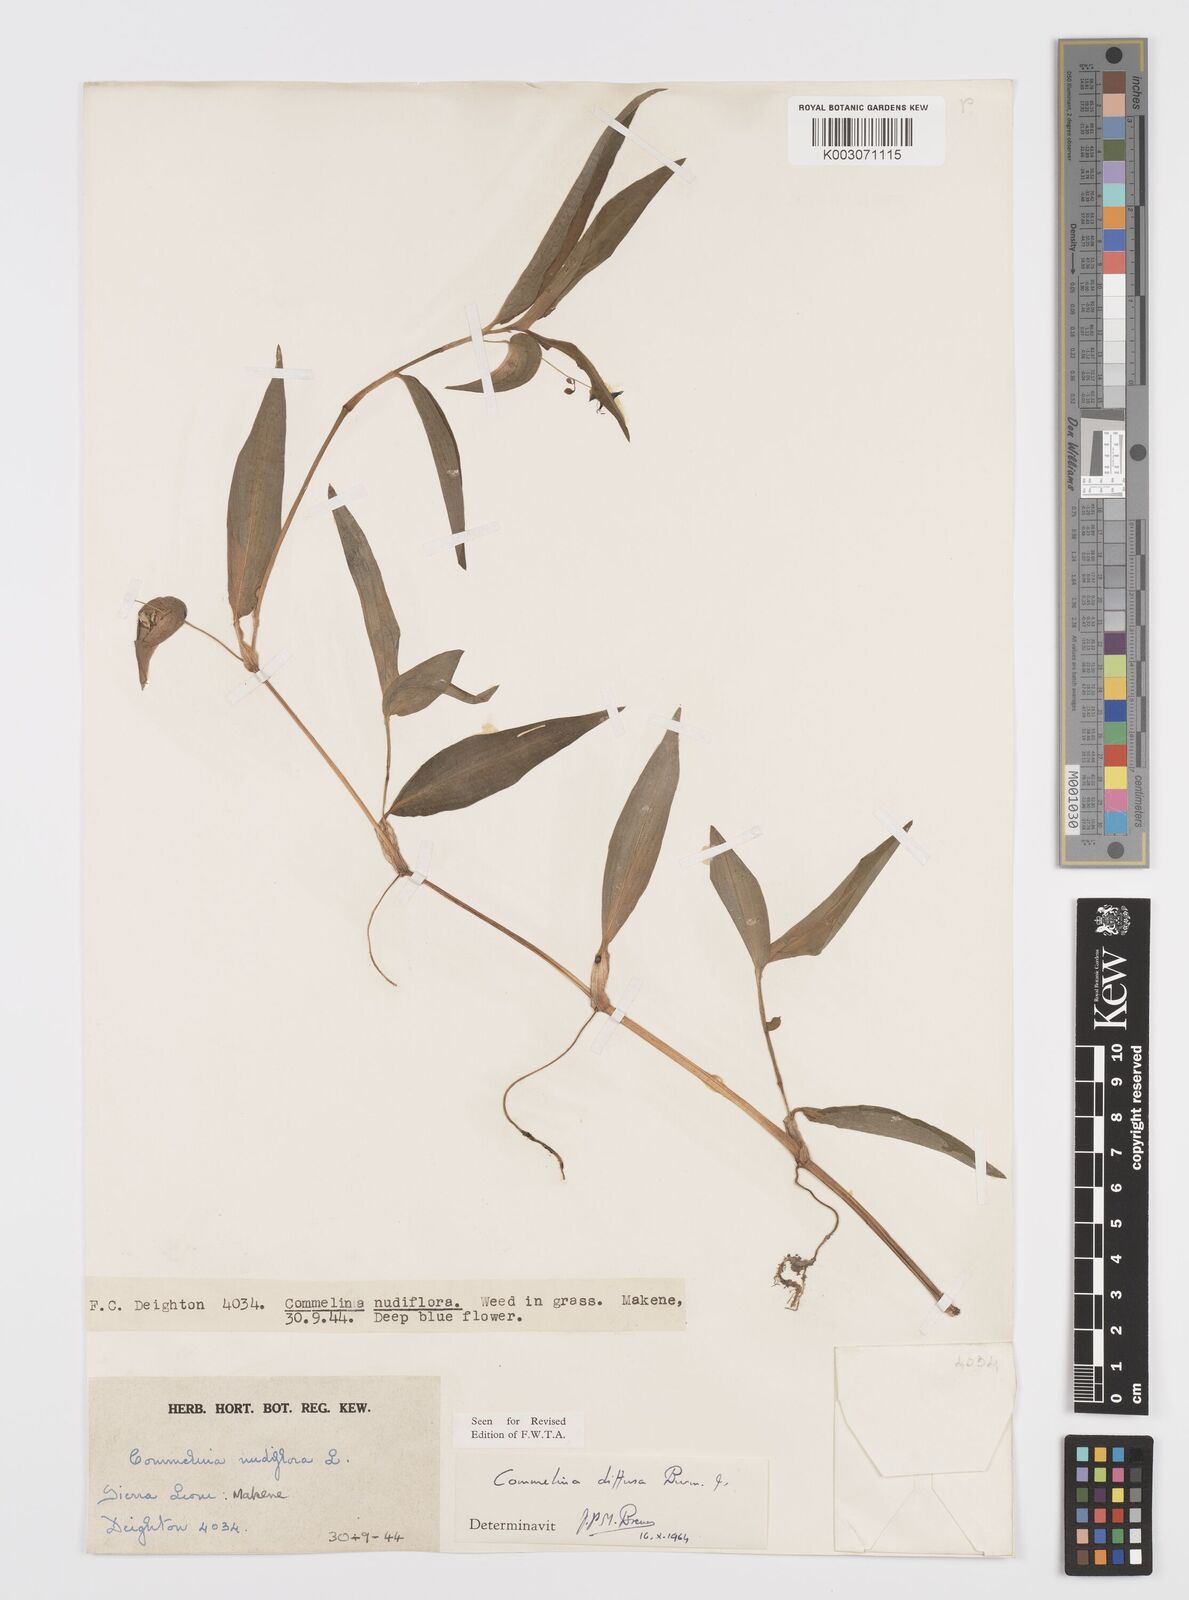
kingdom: Plantae
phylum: Tracheophyta
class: Liliopsida
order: Commelinales
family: Commelinaceae
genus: Commelina
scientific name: Commelina diffusa
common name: Climbing dayflower
